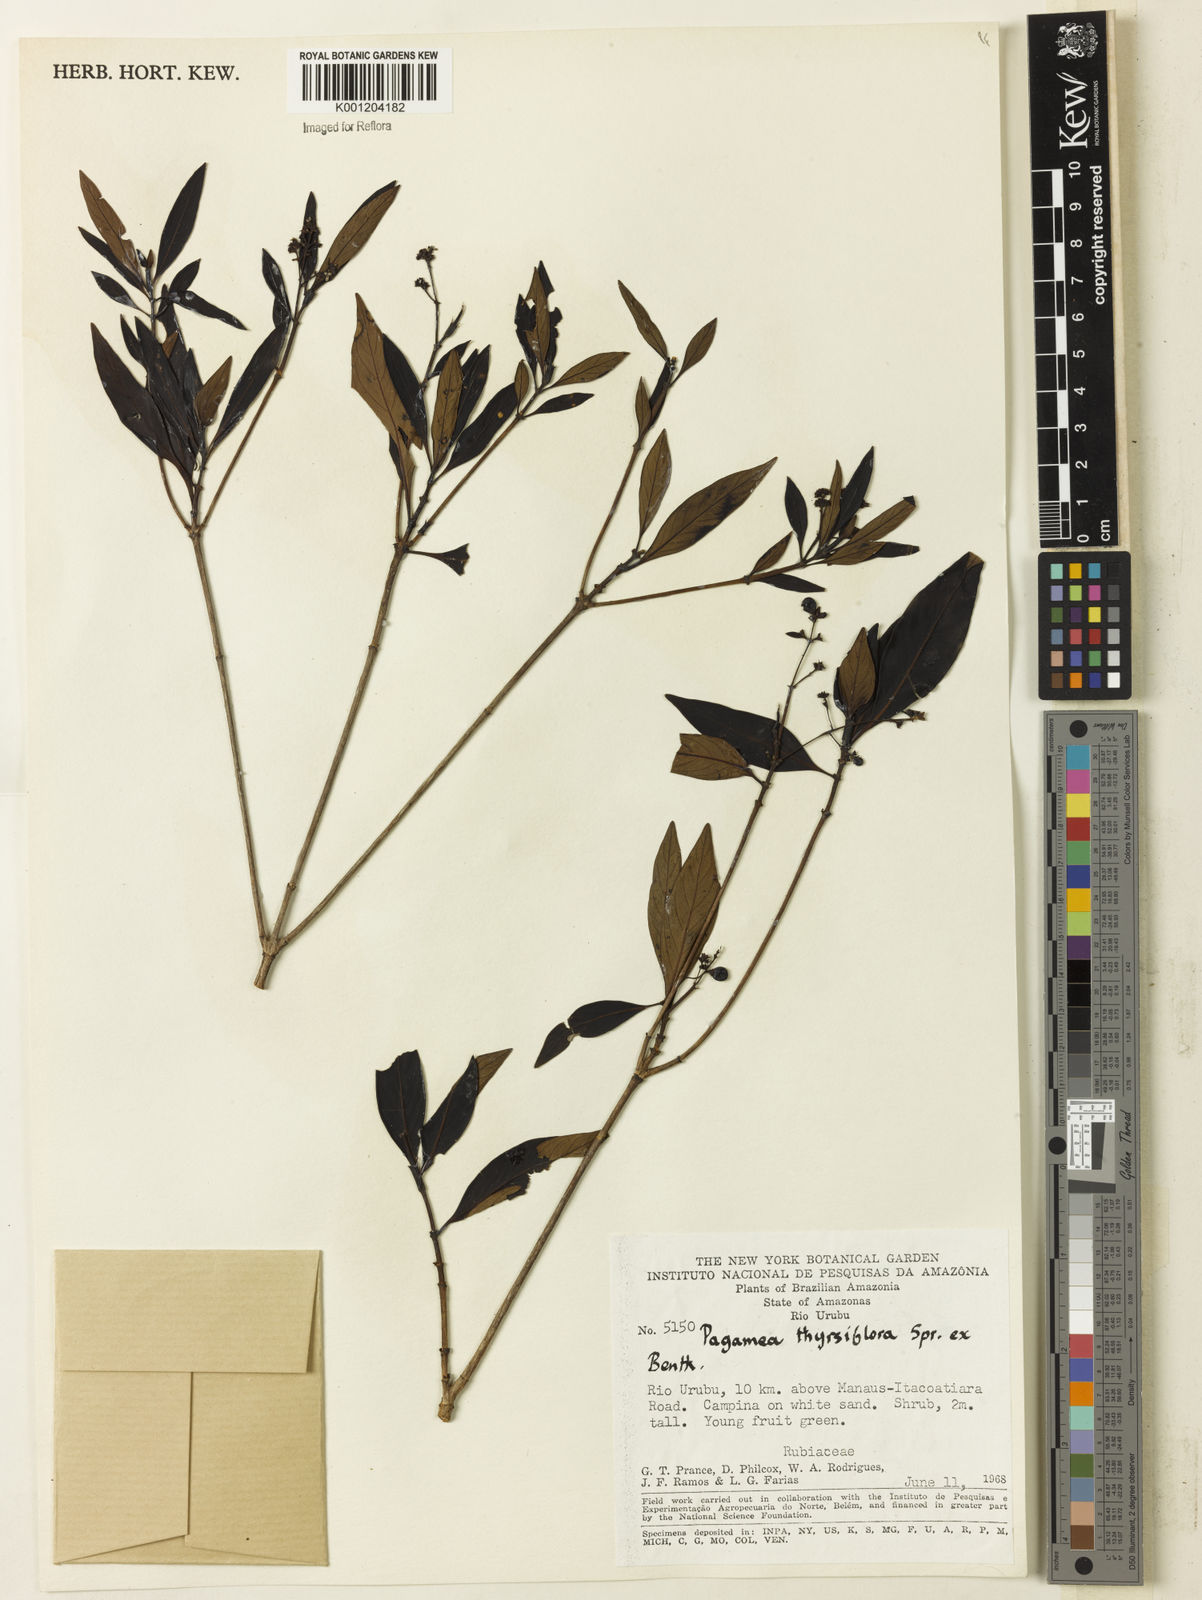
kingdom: Plantae
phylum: Tracheophyta
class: Magnoliopsida
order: Gentianales
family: Rubiaceae
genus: Pagamea
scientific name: Pagamea thyrsiflora
